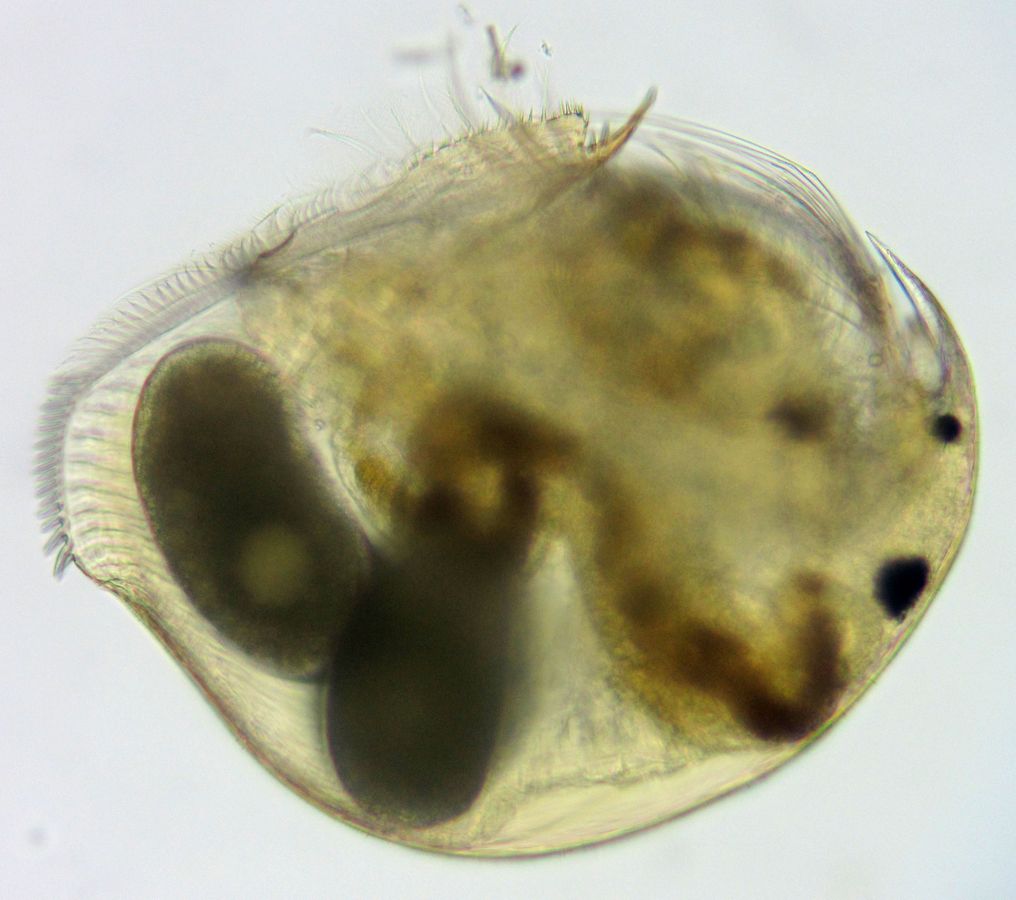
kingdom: Animalia
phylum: Arthropoda
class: Branchiopoda
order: Diplostraca
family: Chydoridae
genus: Peracantha
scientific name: Peracantha truncata
